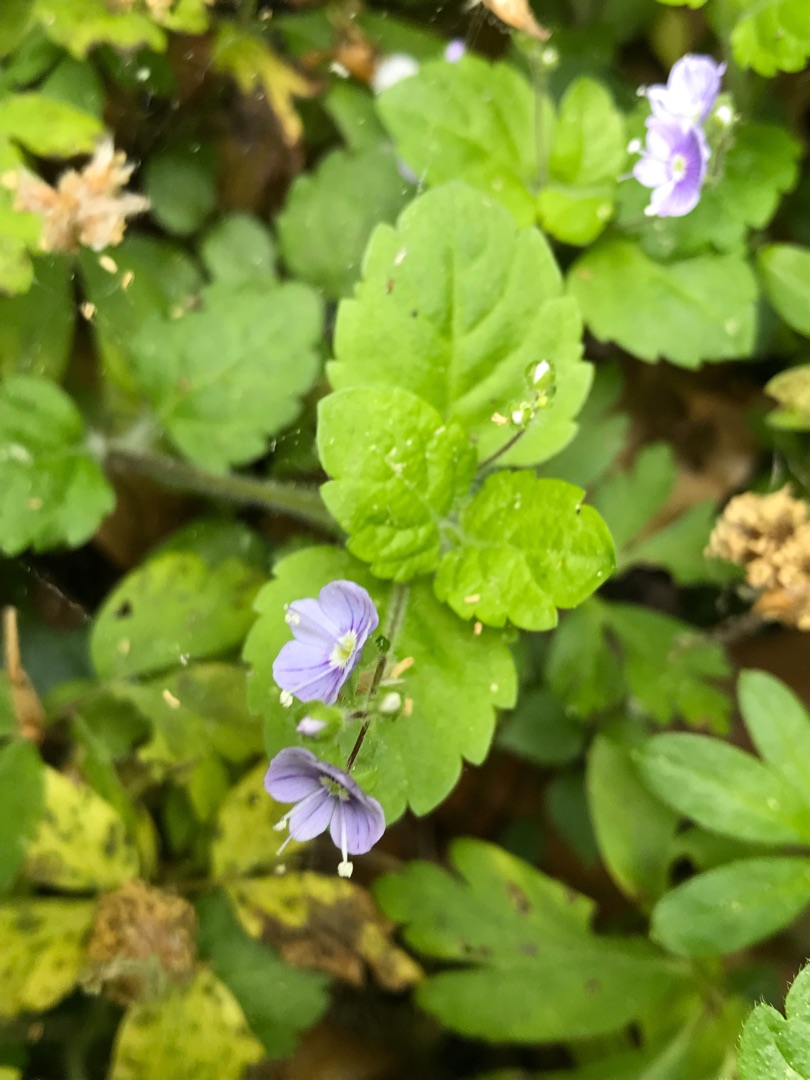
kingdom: Plantae
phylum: Tracheophyta
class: Magnoliopsida
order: Lamiales
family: Plantaginaceae
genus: Veronica
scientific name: Veronica montana
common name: Bjerg-ærenpris
